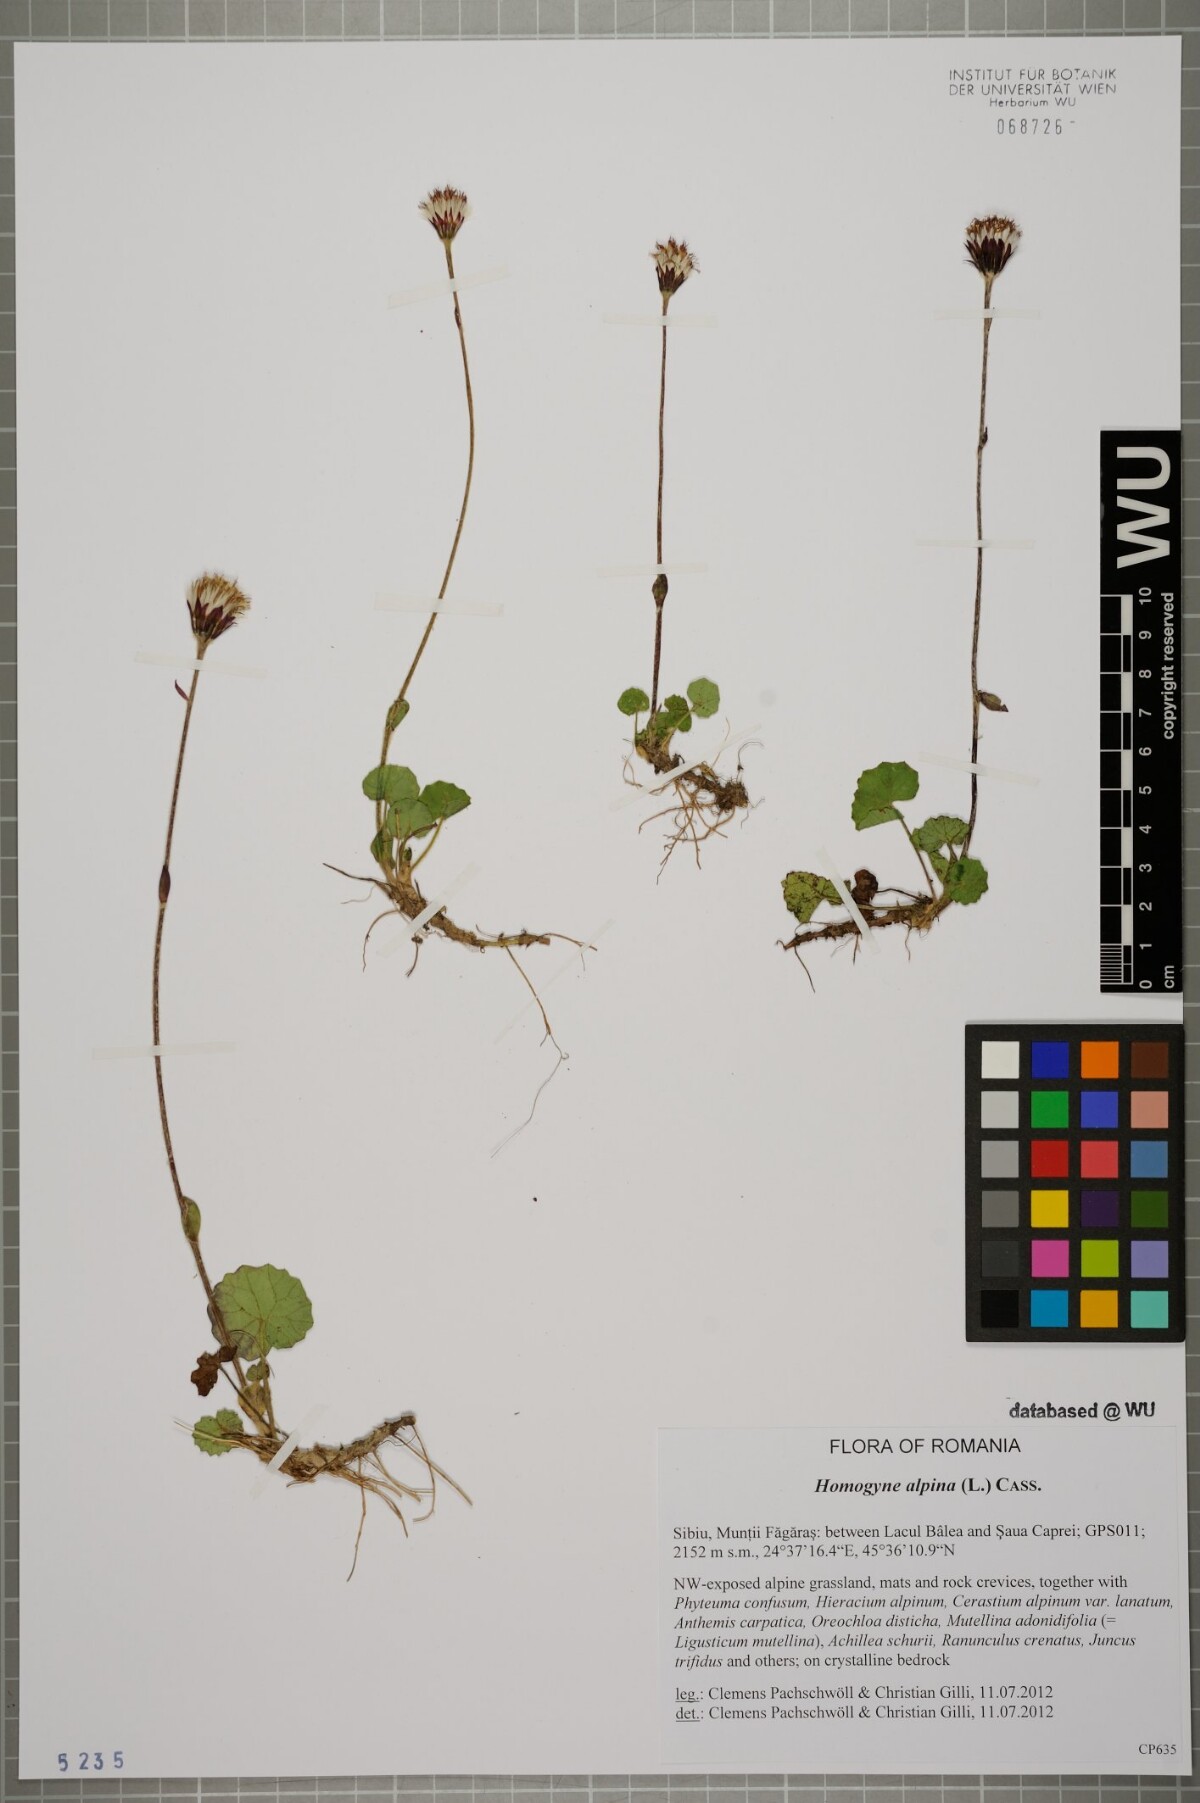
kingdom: Plantae
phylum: Tracheophyta
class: Magnoliopsida
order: Asterales
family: Asteraceae
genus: Homogyne
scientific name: Homogyne alpina
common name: Purple colt's-foot
